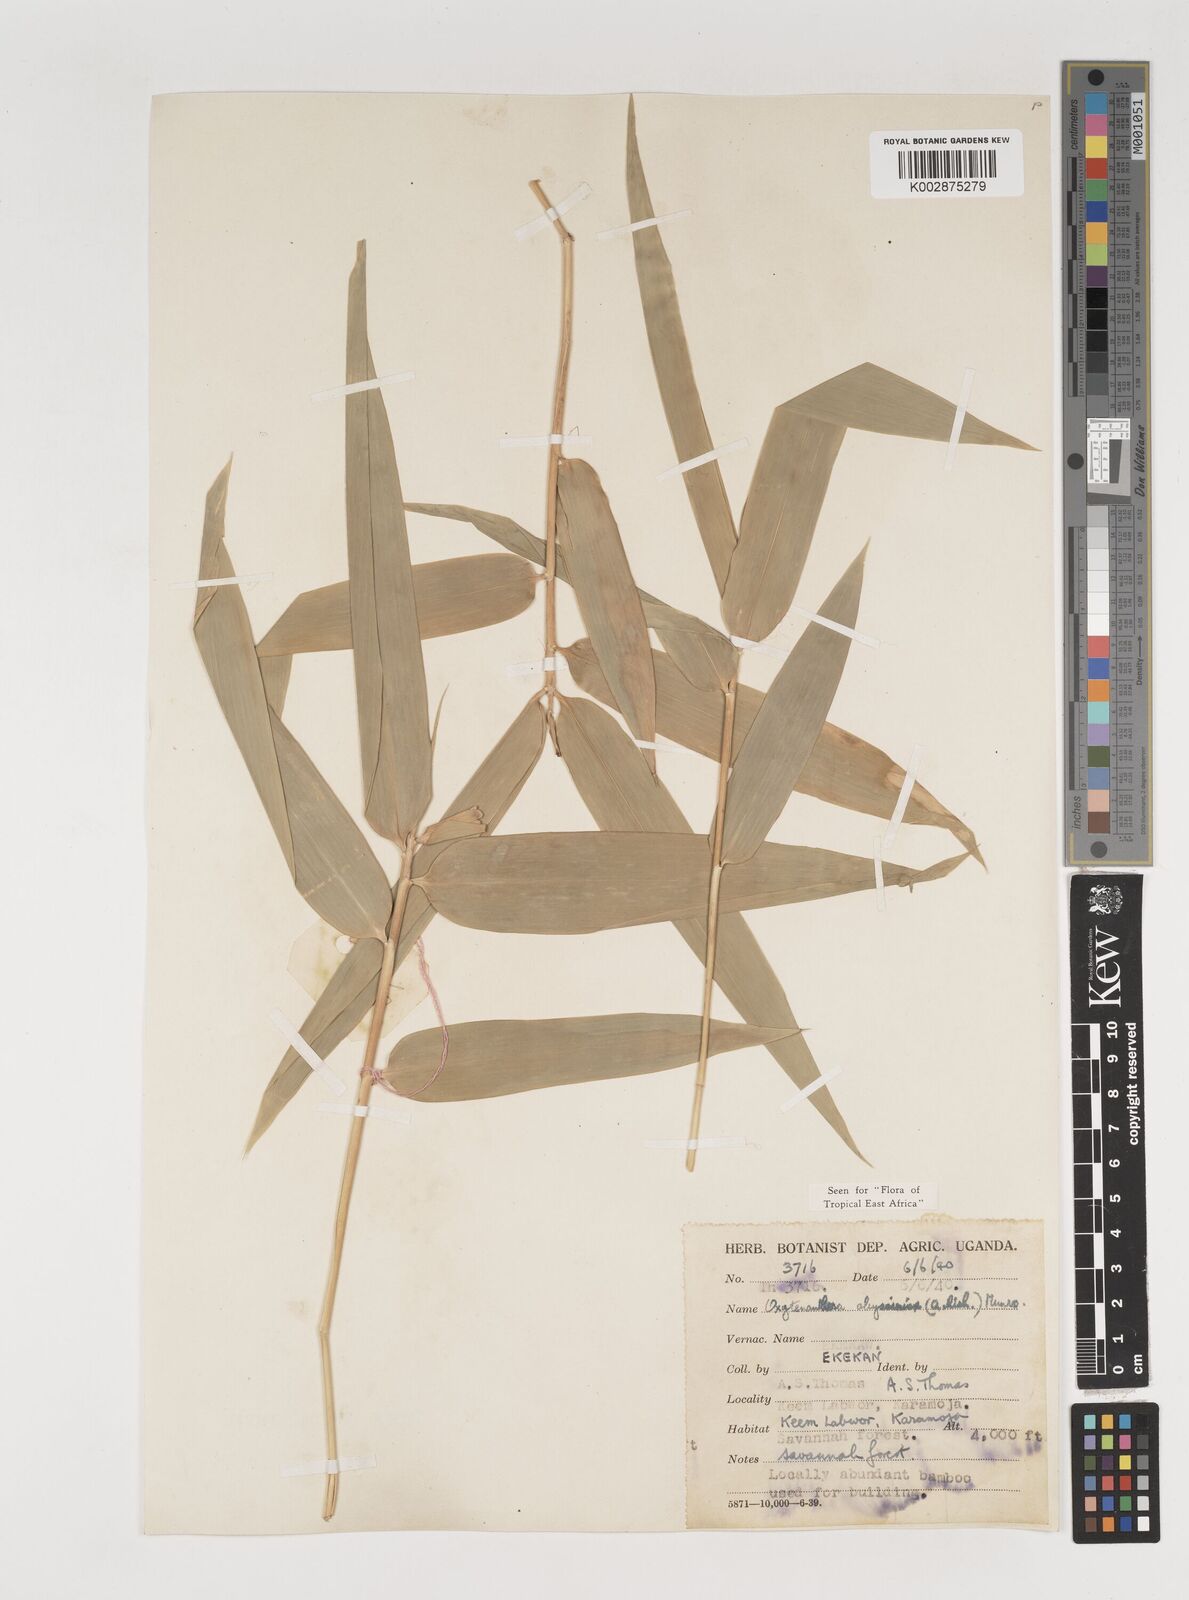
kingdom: Plantae
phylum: Tracheophyta
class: Liliopsida
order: Poales
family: Poaceae
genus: Oxytenanthera
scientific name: Oxytenanthera abyssinica
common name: Wine bamboo
